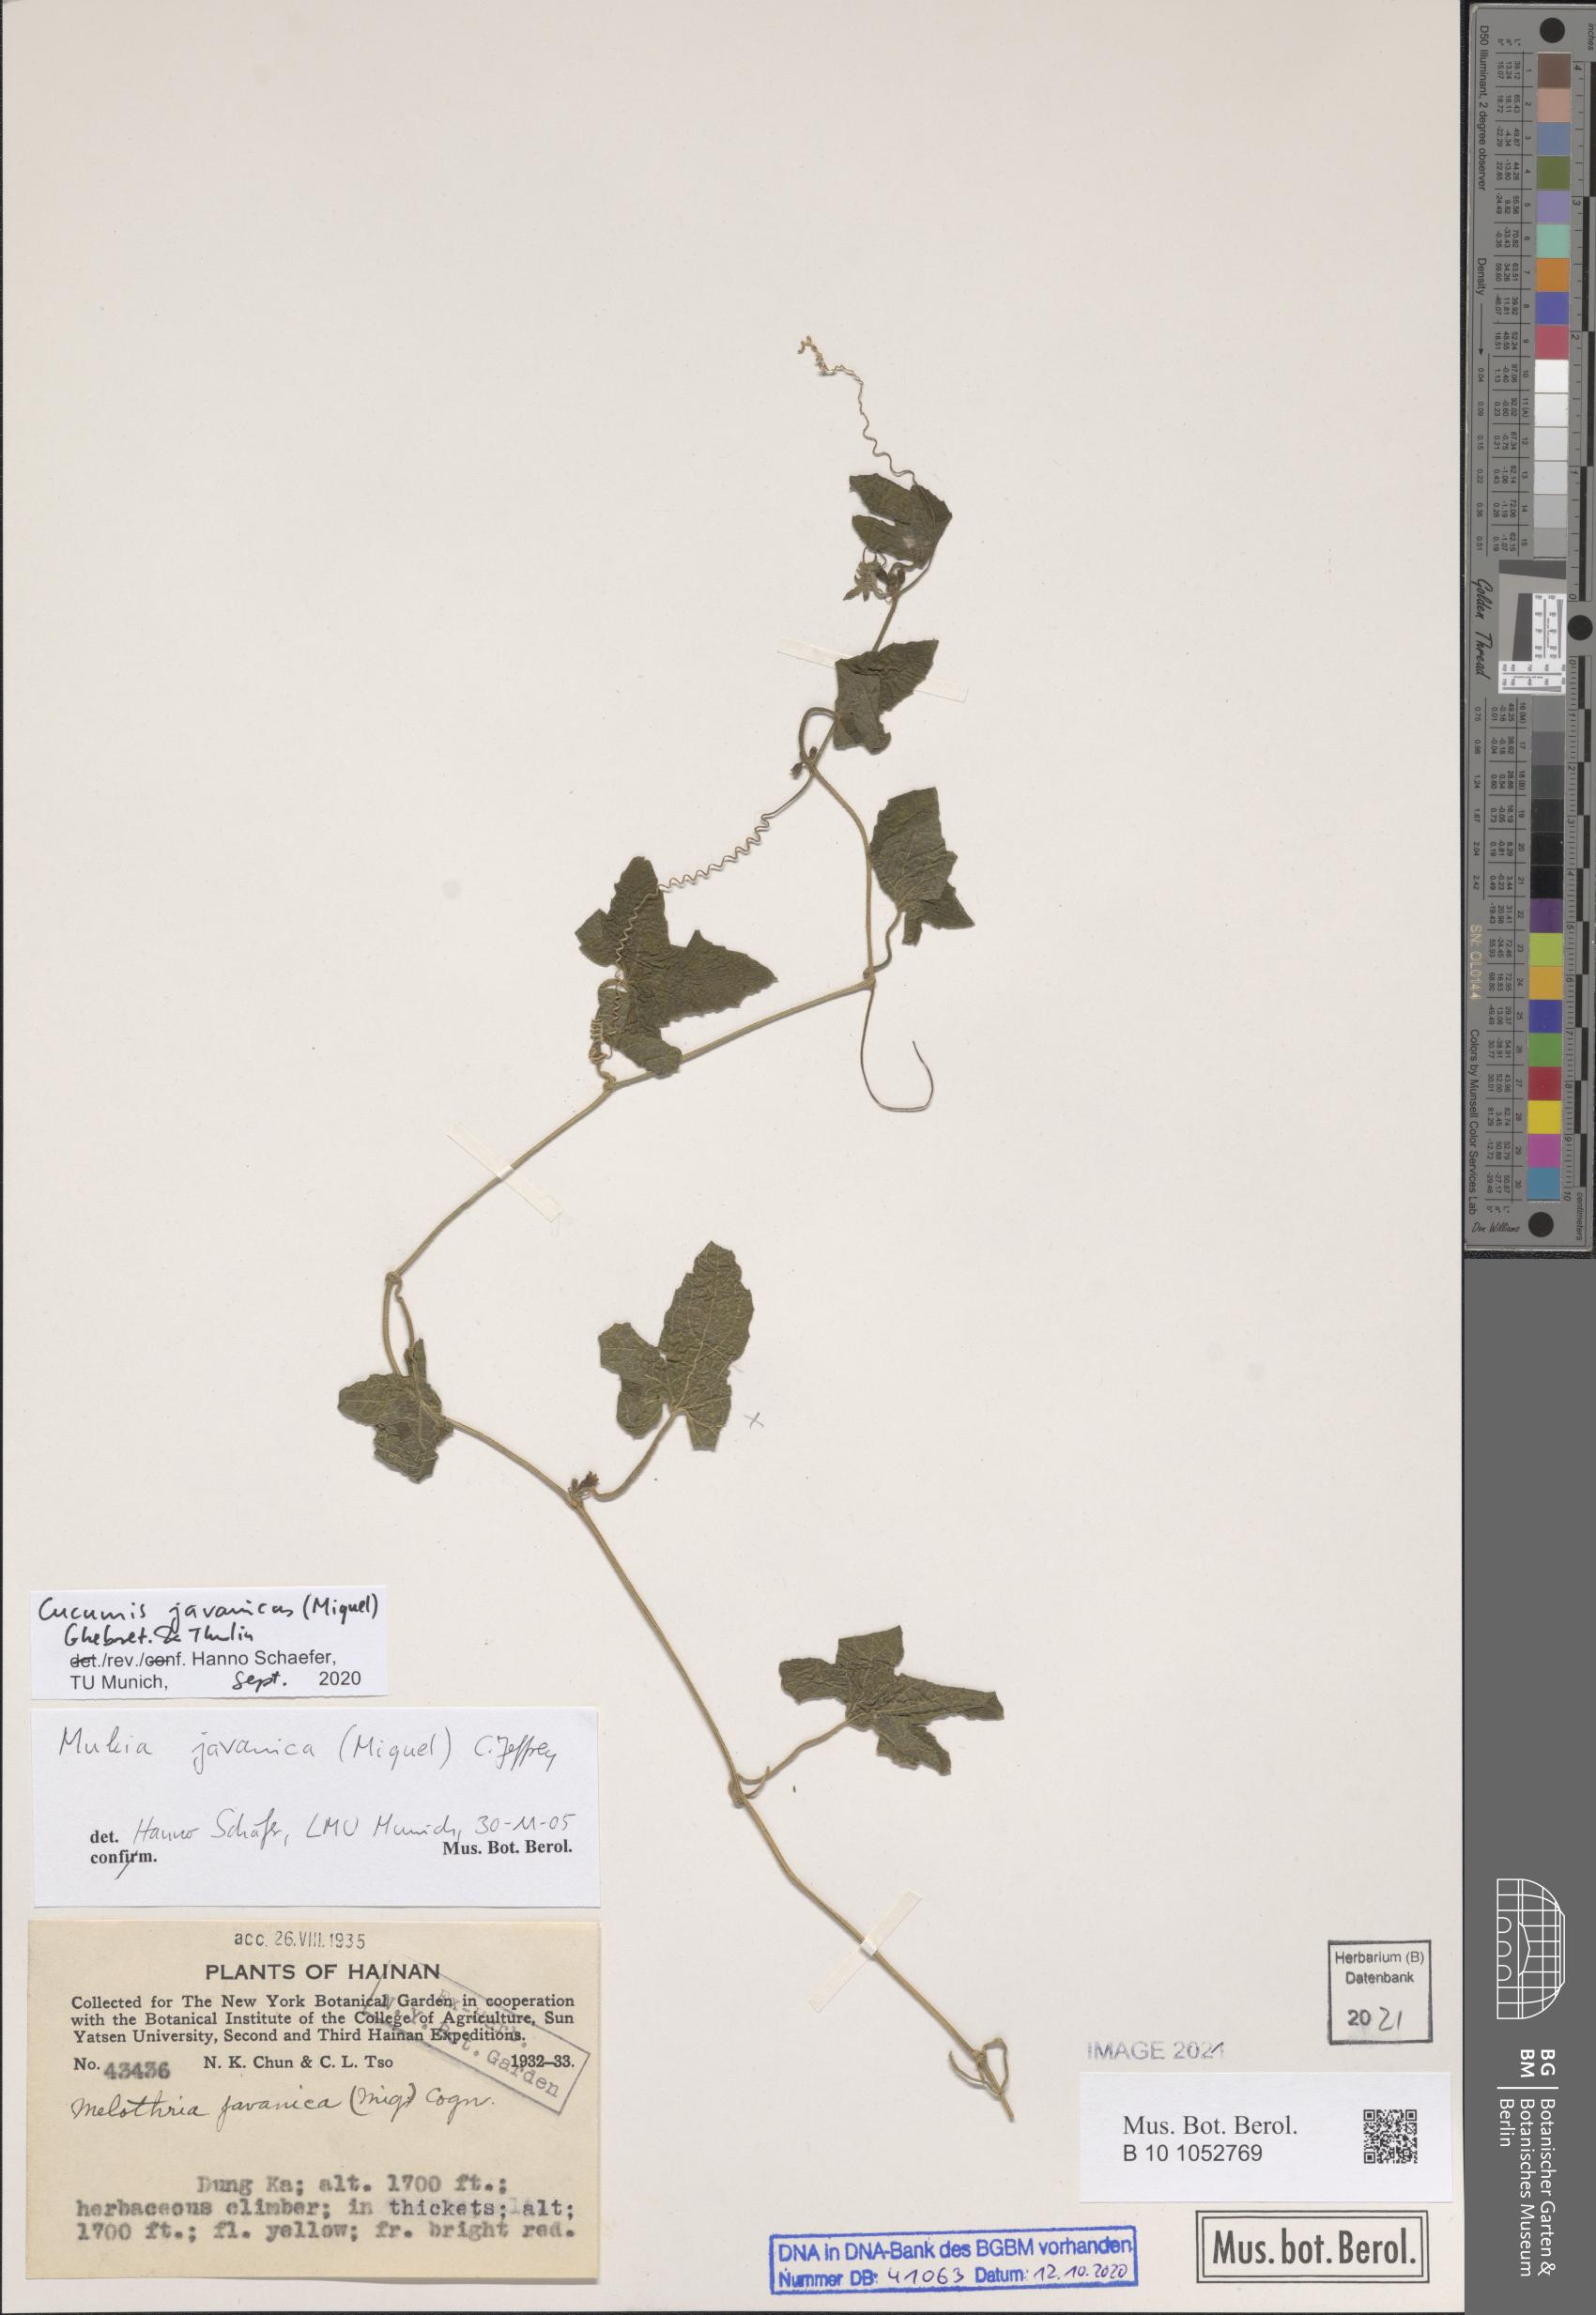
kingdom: Plantae
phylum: Tracheophyta
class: Magnoliopsida
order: Cucurbitales
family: Cucurbitaceae
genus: Cucumis
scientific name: Cucumis javanicus
